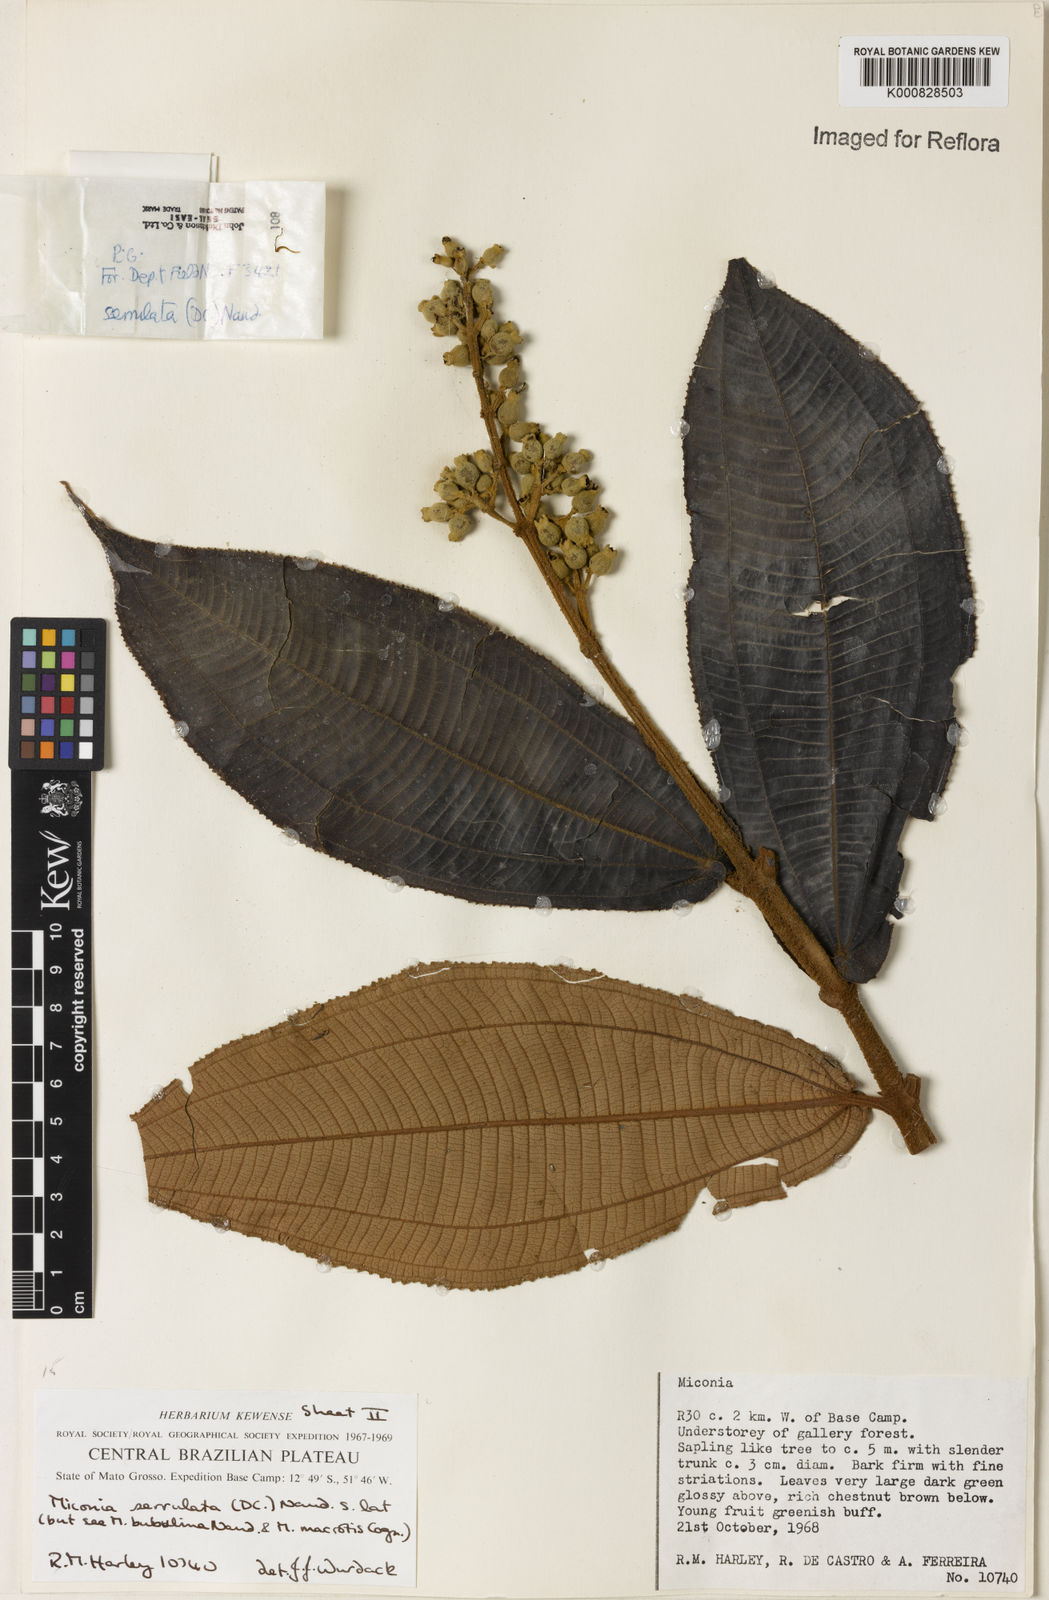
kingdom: Plantae
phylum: Tracheophyta
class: Magnoliopsida
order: Myrtales
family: Melastomataceae
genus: Miconia
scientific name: Miconia serrulata
